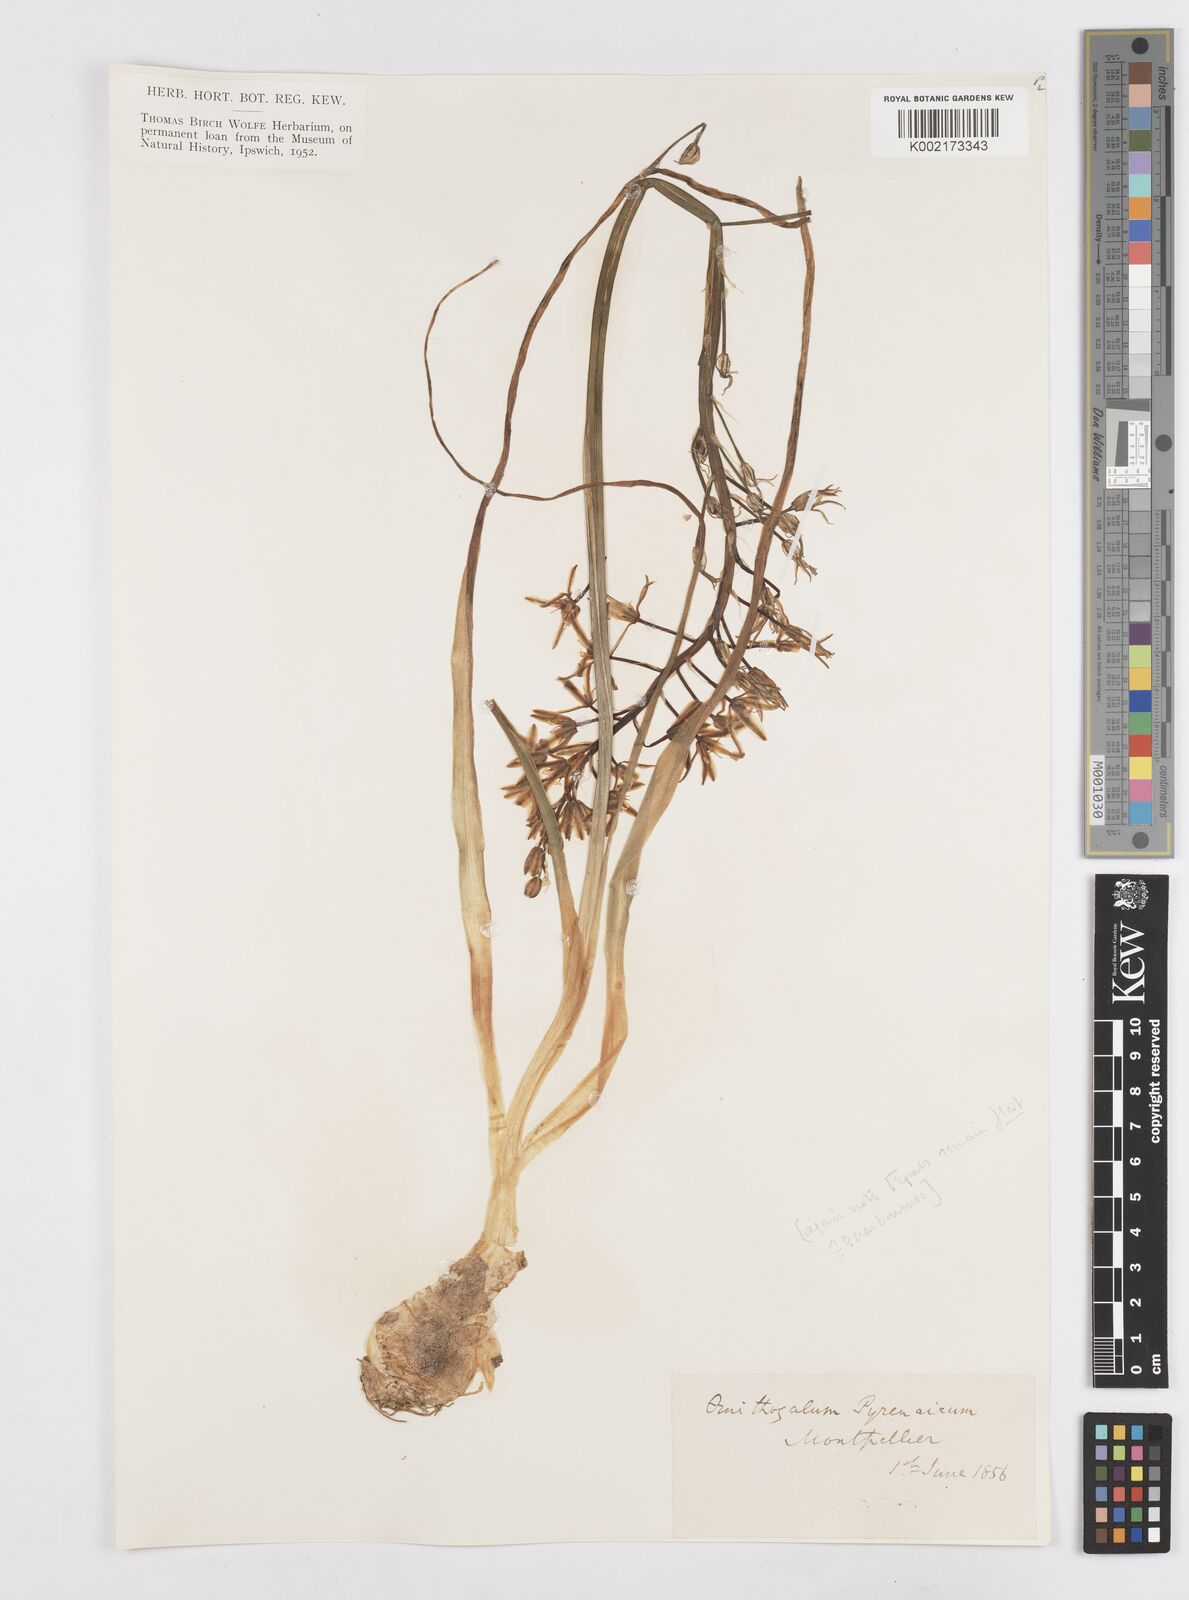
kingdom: Plantae
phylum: Tracheophyta
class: Liliopsida
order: Asparagales
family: Asparagaceae
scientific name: Asparagaceae
